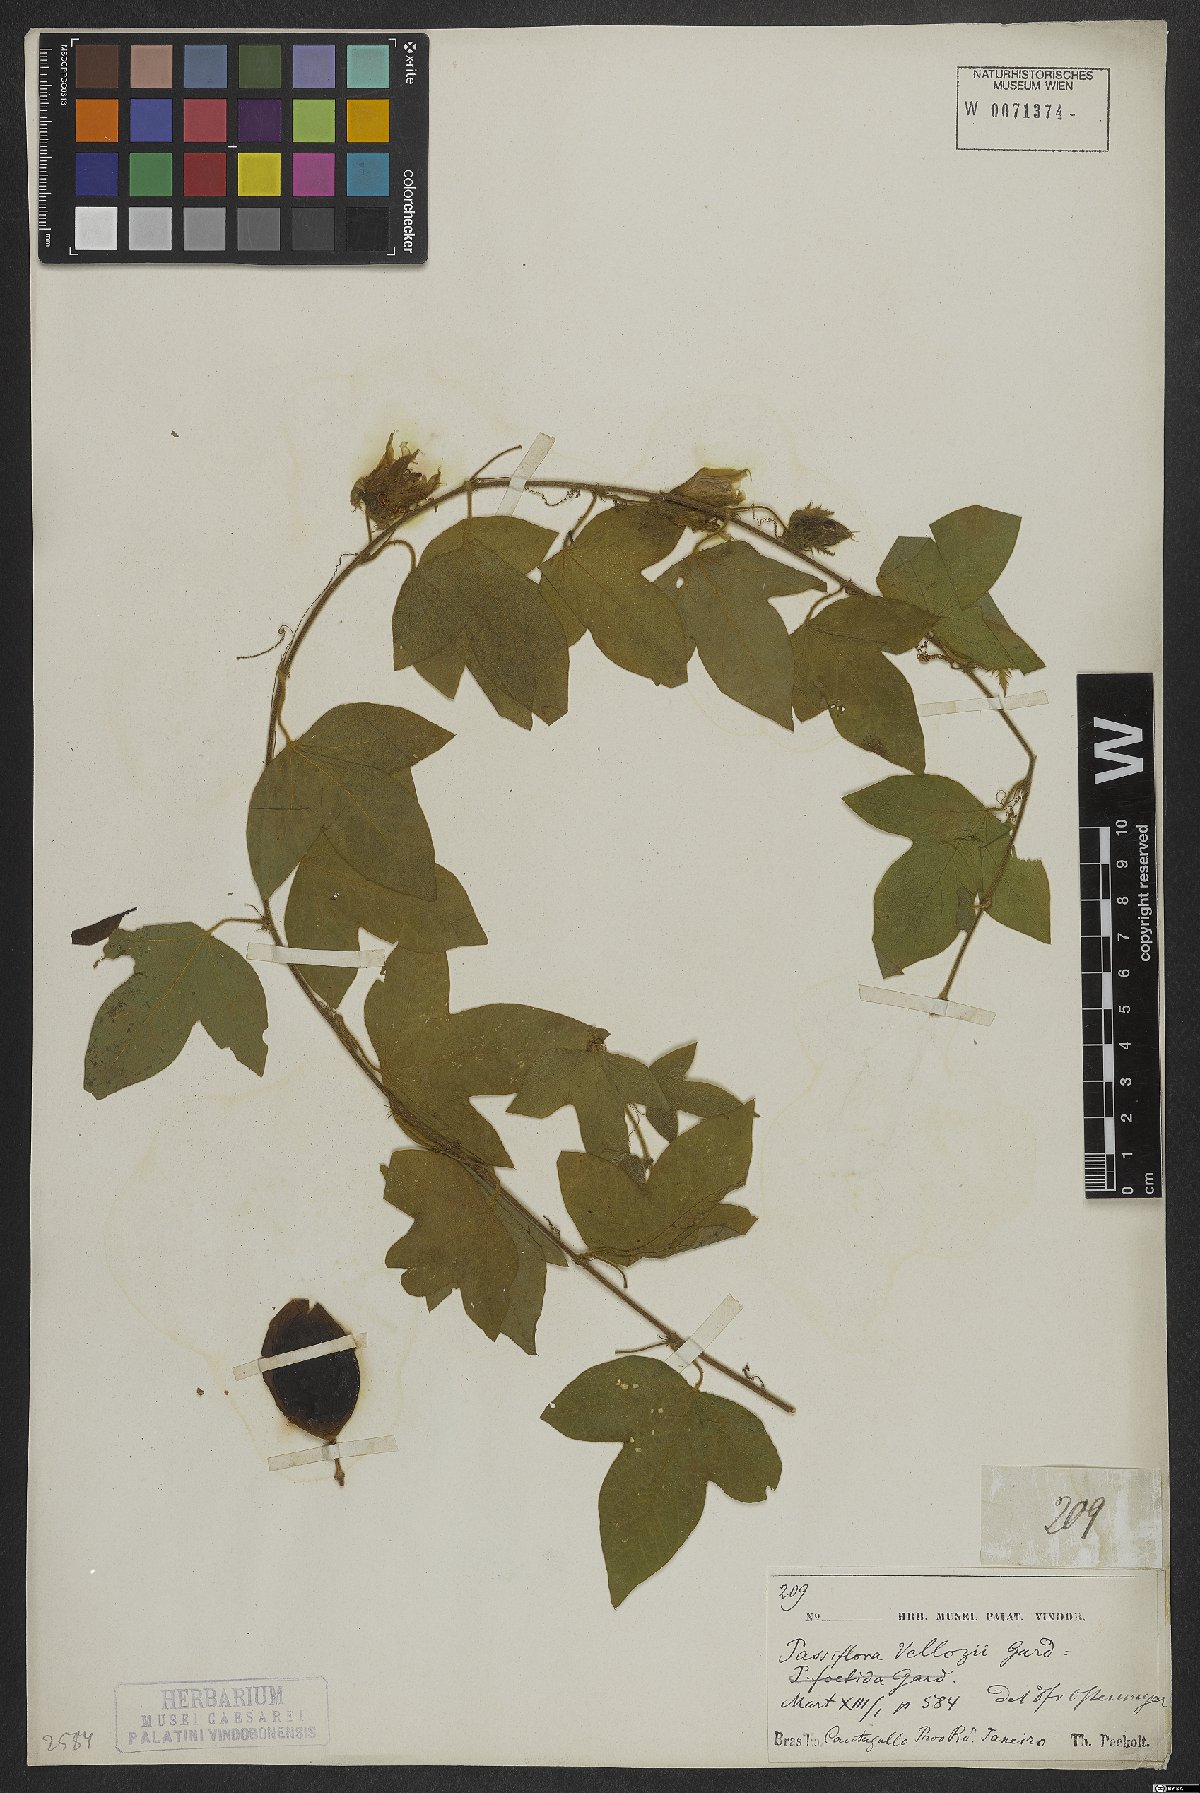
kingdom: Plantae
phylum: Tracheophyta
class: Magnoliopsida
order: Malpighiales
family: Passifloraceae
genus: Passiflora
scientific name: Passiflora vellozii
